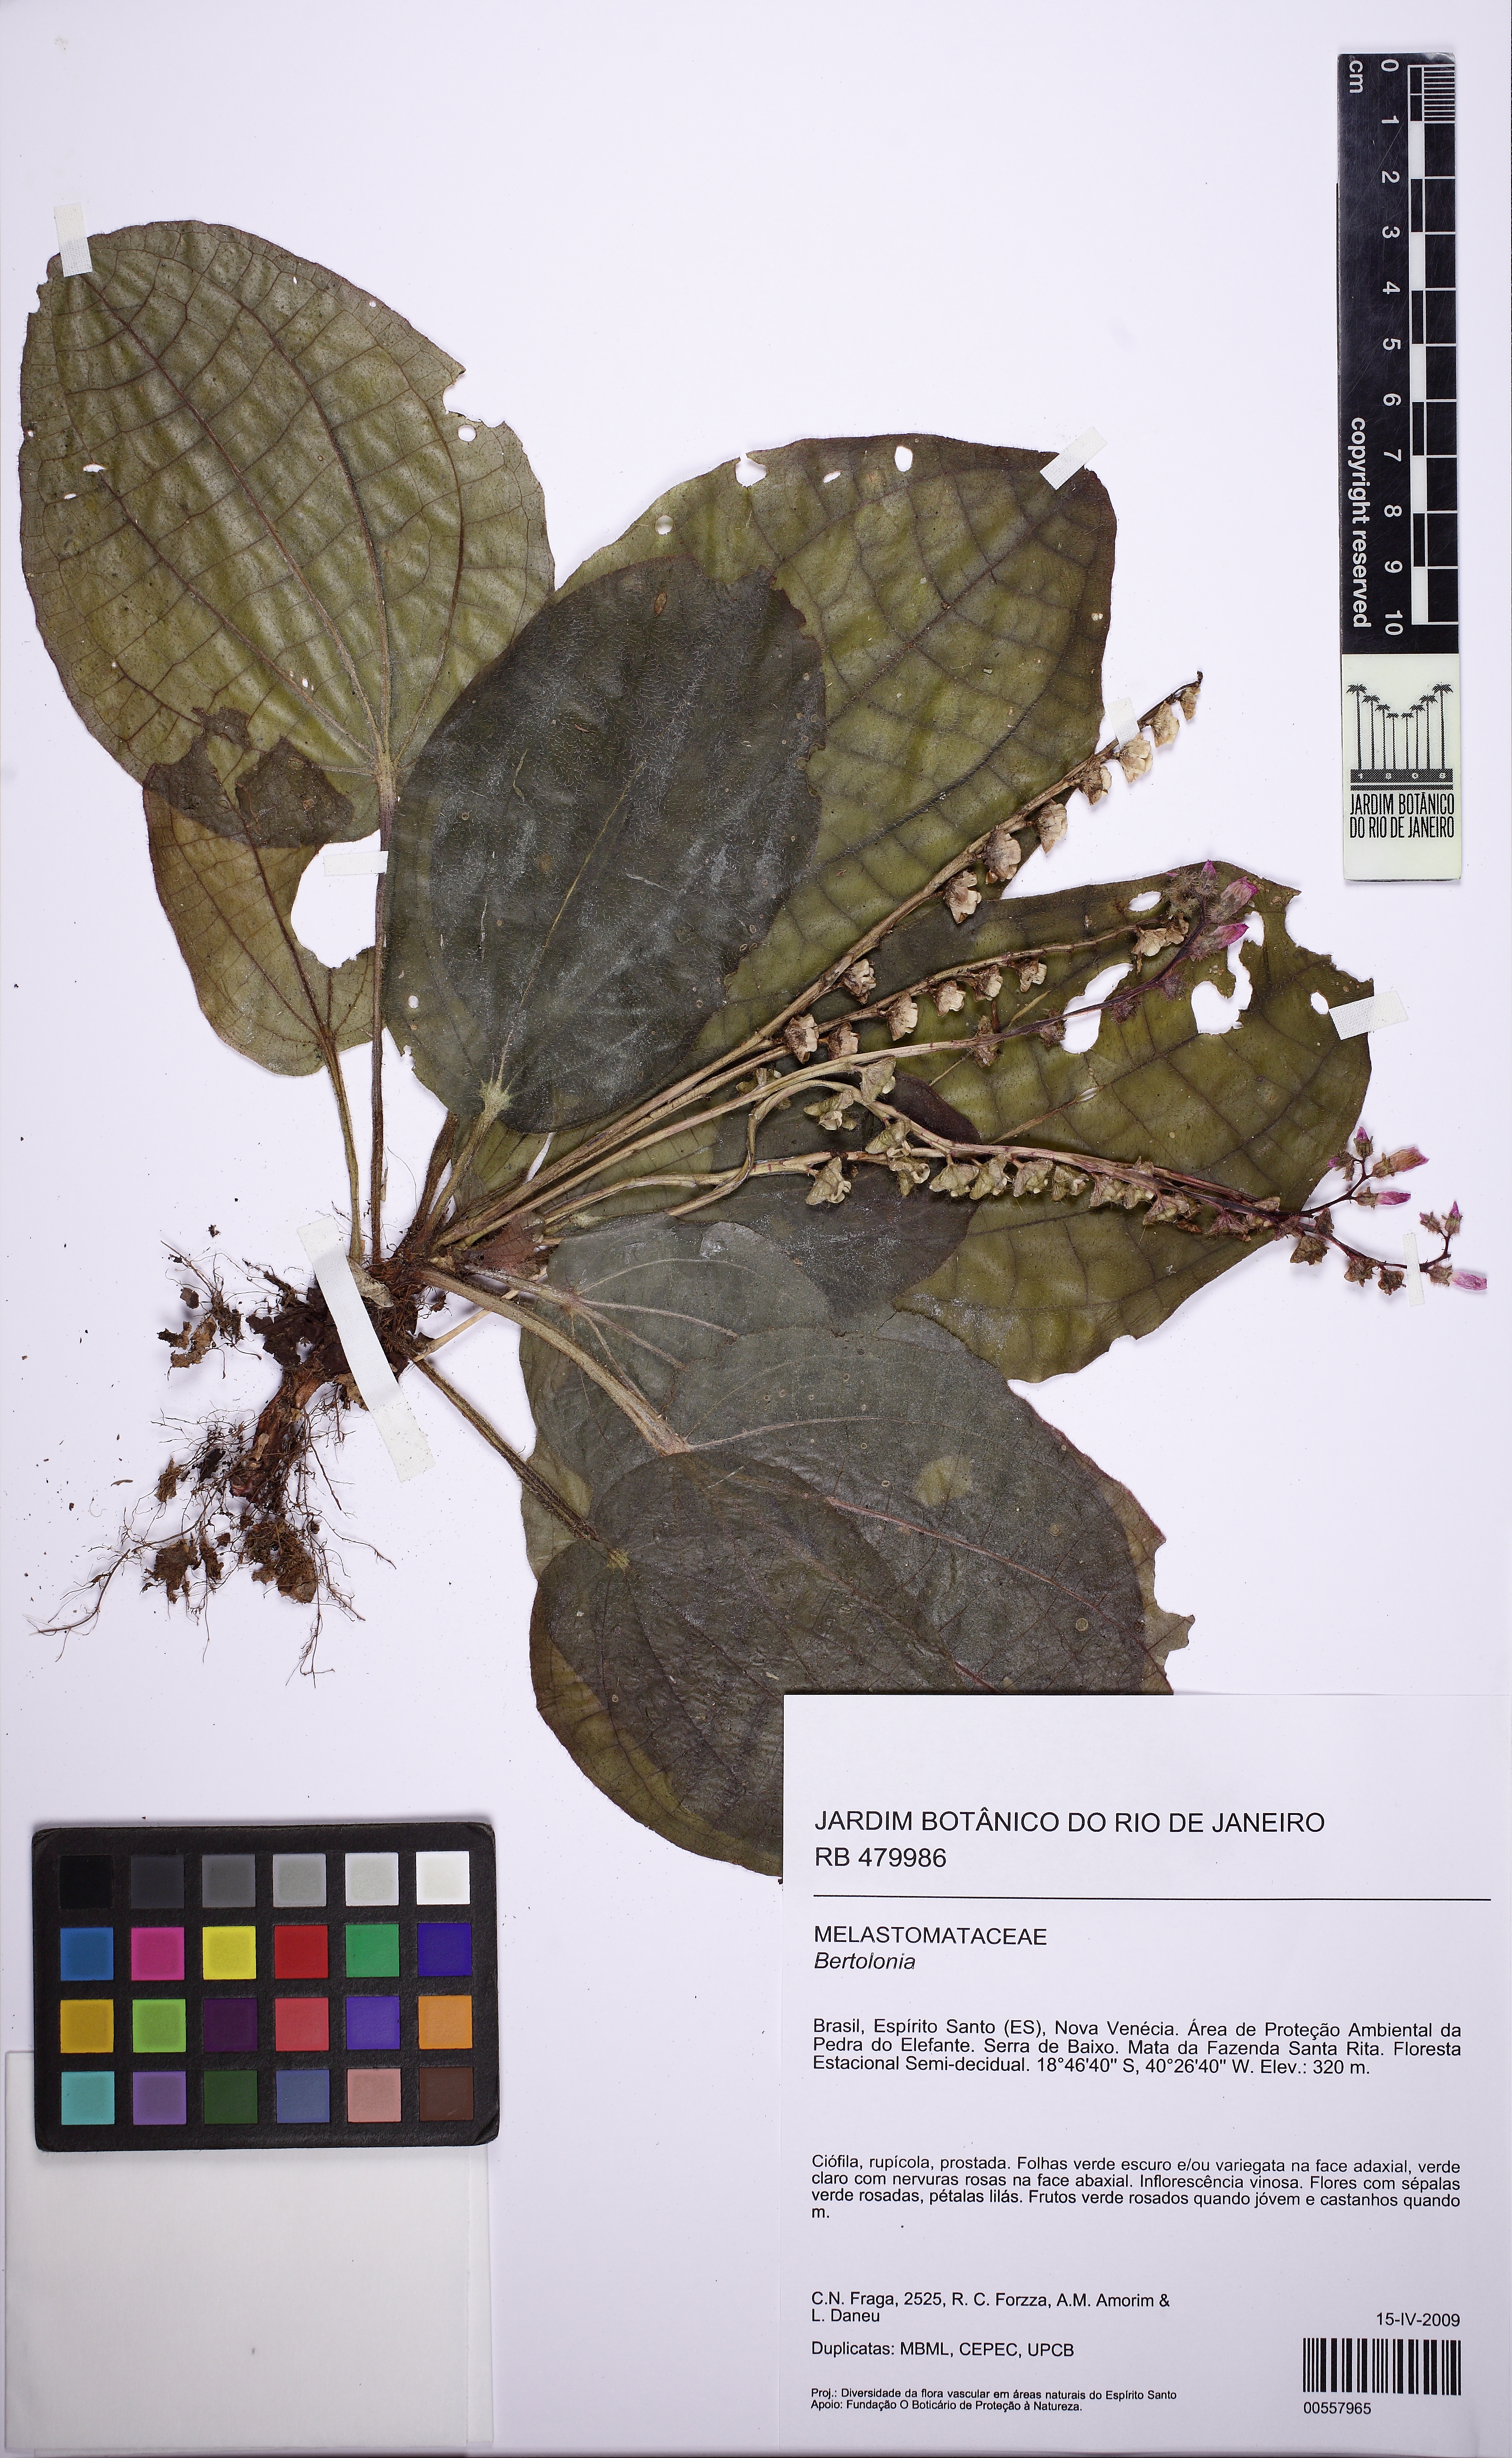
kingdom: Plantae
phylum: Tracheophyta
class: Magnoliopsida
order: Myrtales
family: Melastomataceae
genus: Bertolonia
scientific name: Bertolonia maculata
